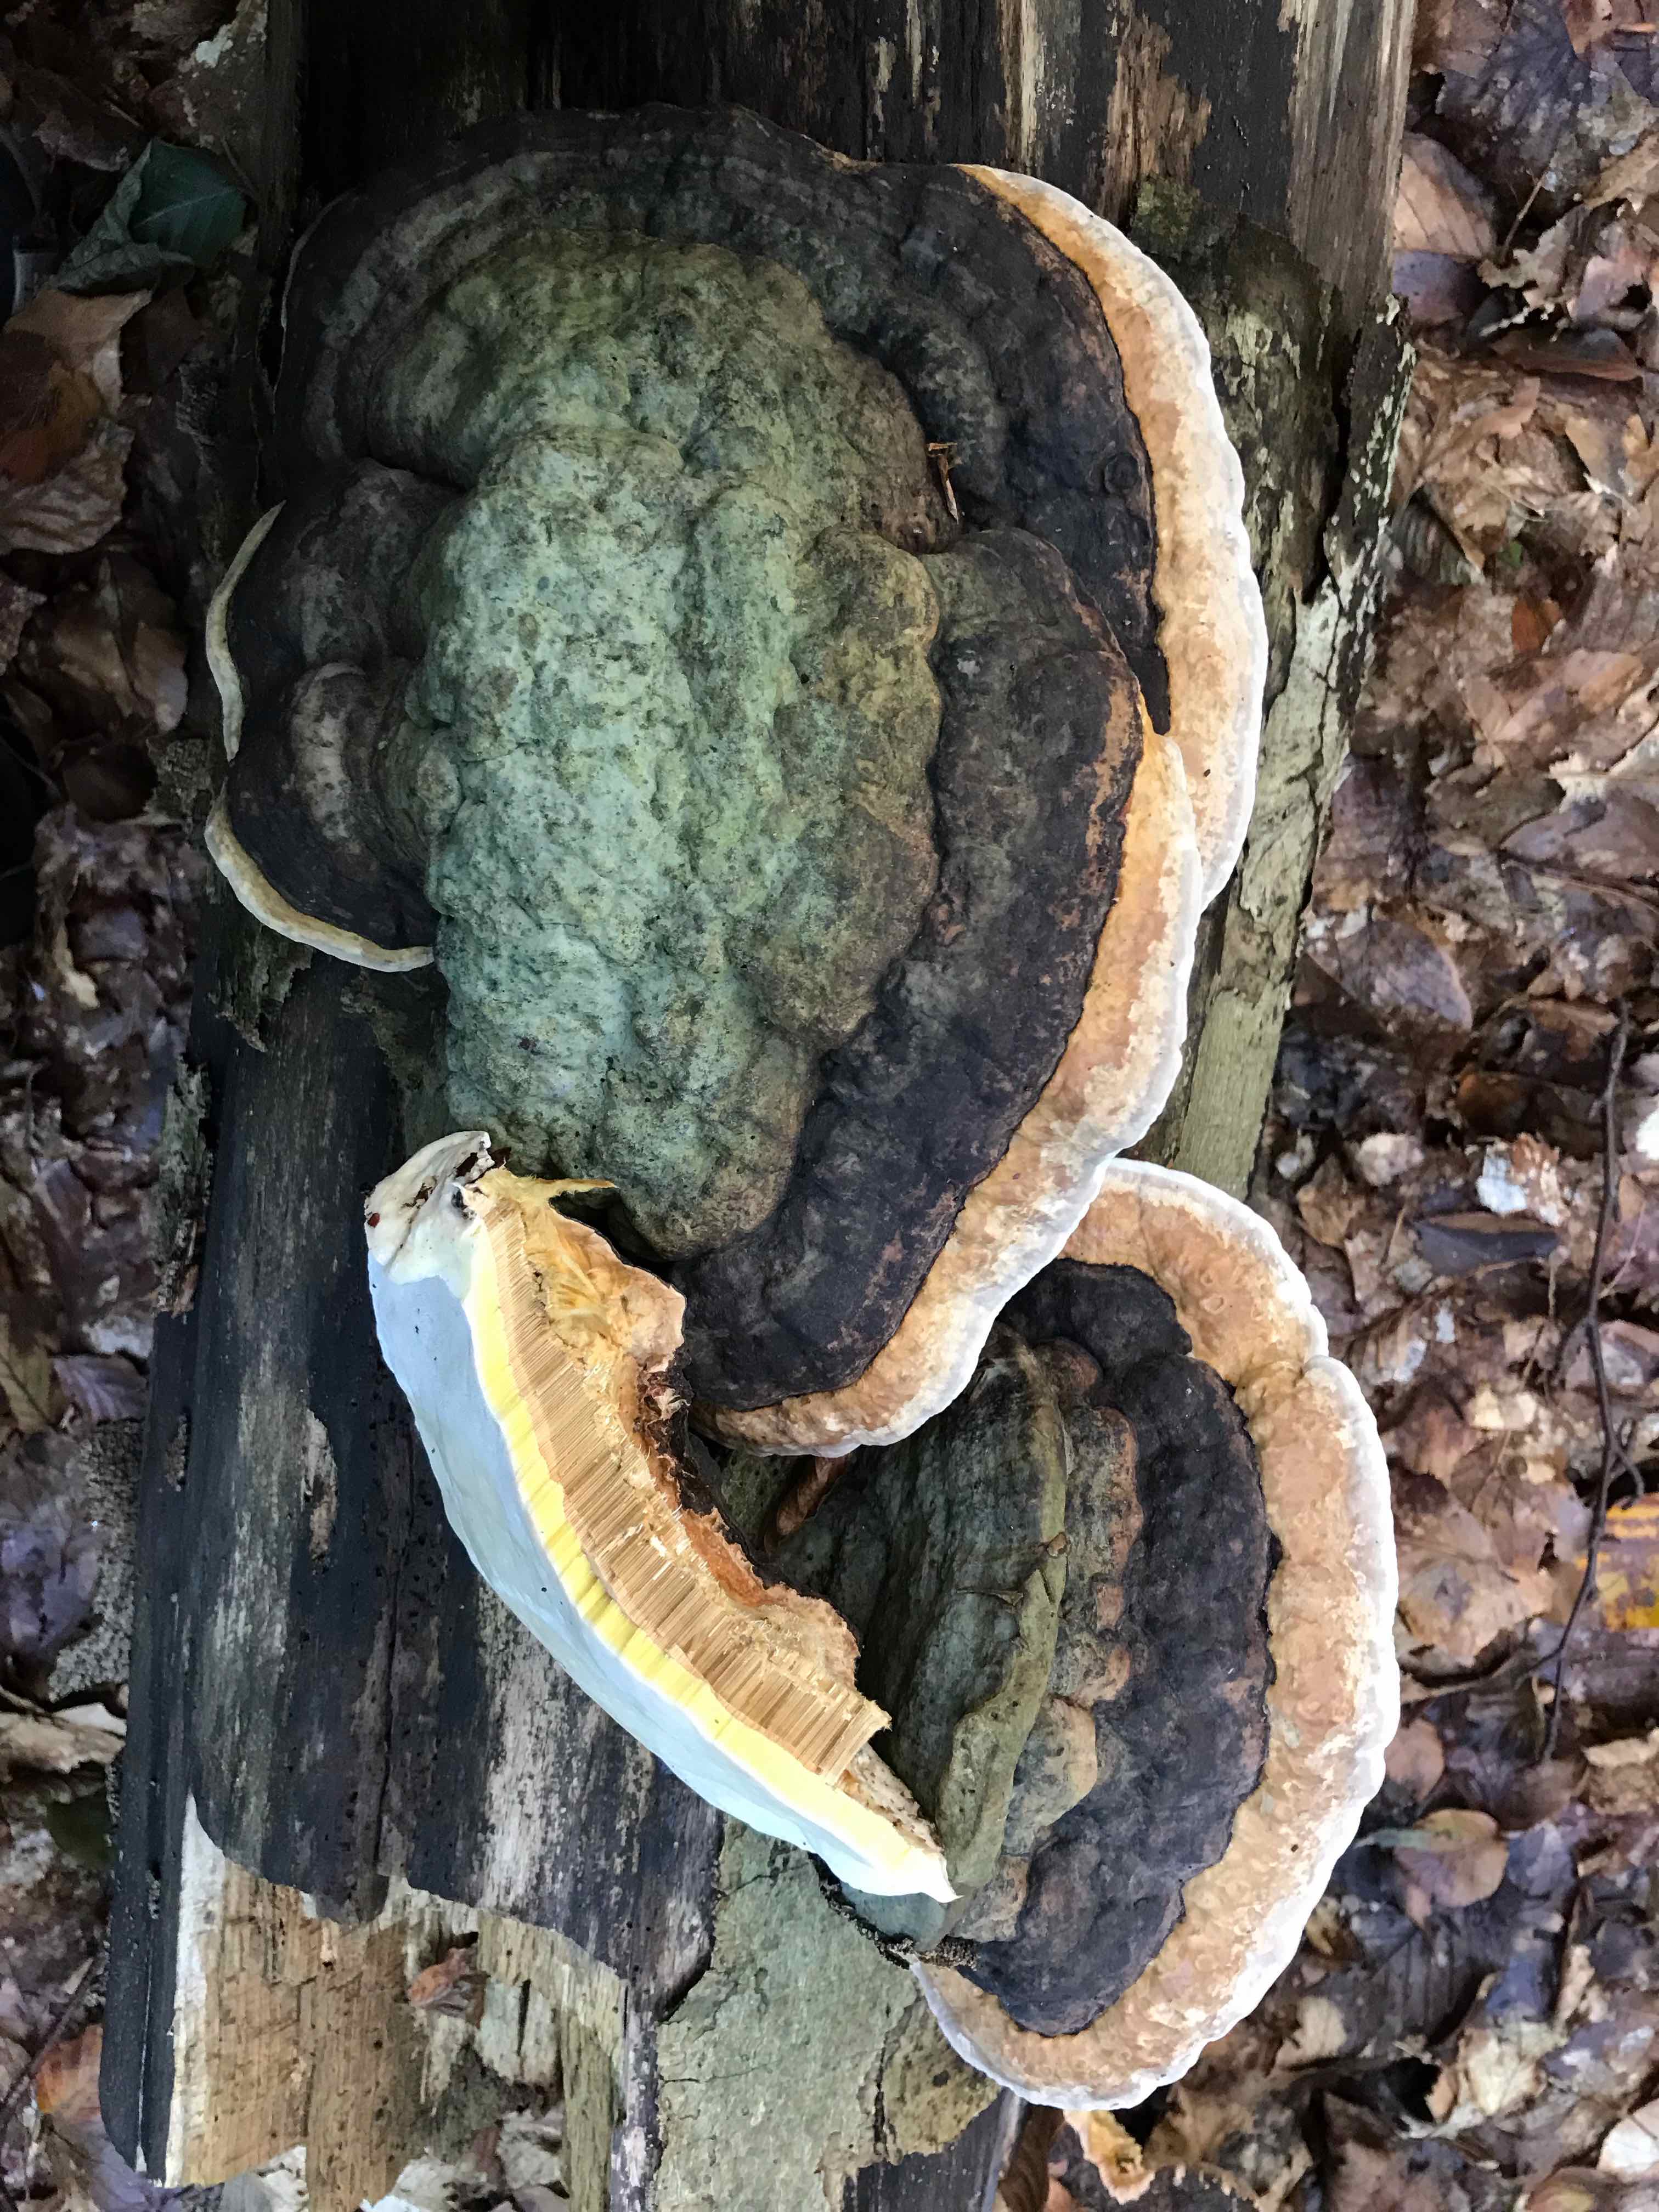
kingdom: Fungi
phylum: Basidiomycota
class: Agaricomycetes
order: Polyporales
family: Fomitopsidaceae
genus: Fomitopsis
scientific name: Fomitopsis pinicola
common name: randbæltet hovporesvamp
